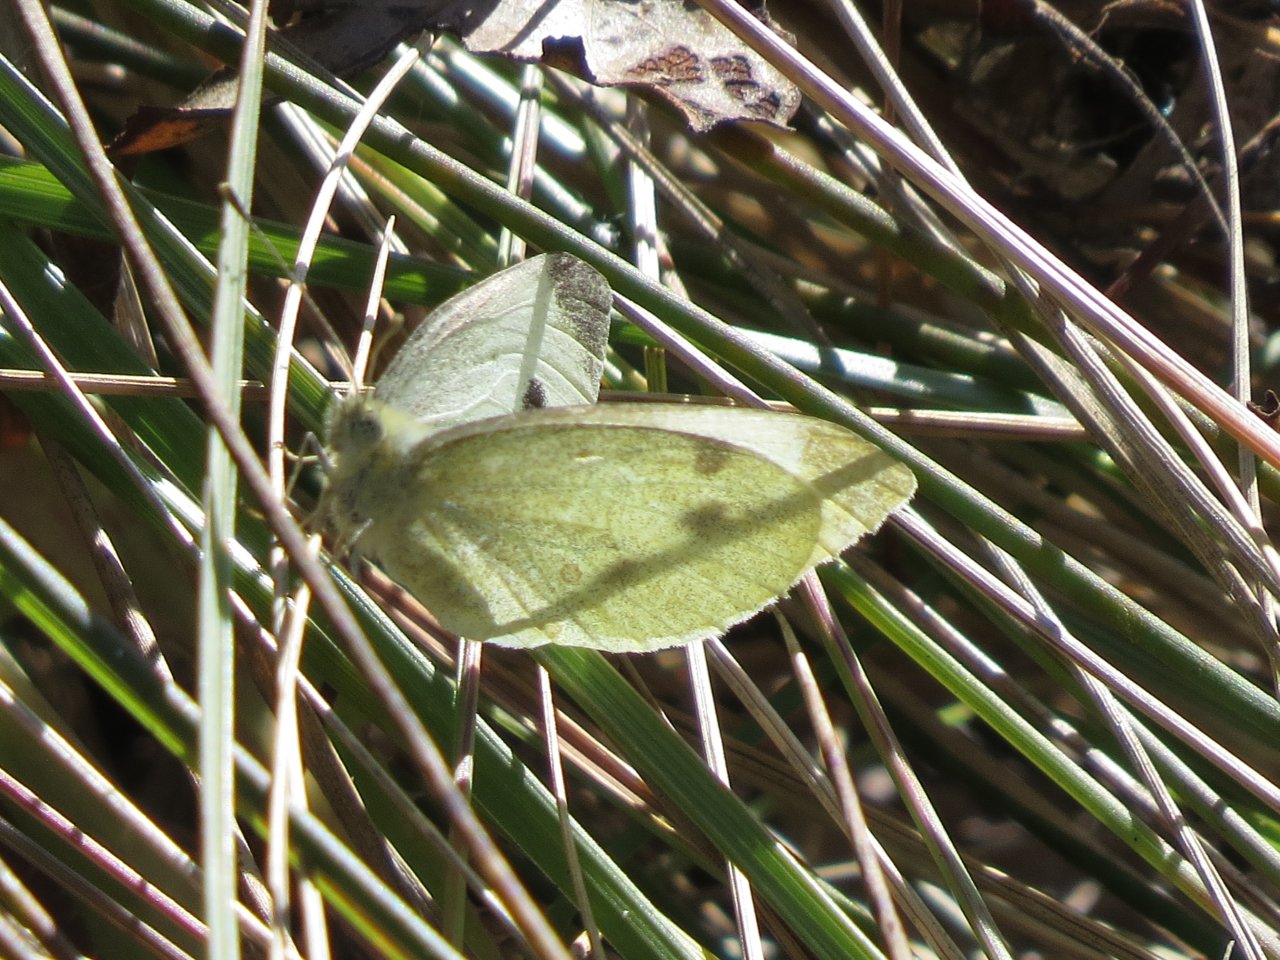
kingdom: Animalia
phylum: Arthropoda
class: Insecta
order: Lepidoptera
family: Pieridae
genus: Pieris
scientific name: Pieris rapae
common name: Cabbage White
